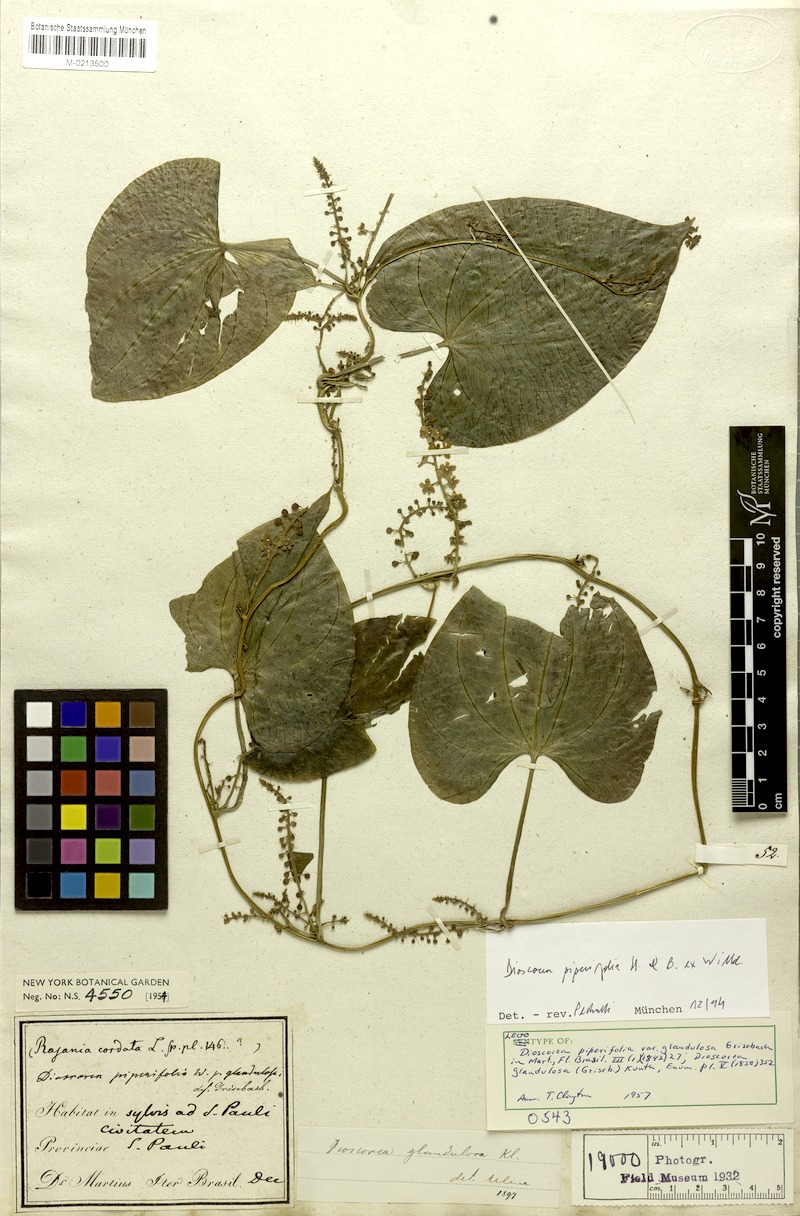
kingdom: Plantae
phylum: Tracheophyta
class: Liliopsida
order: Dioscoreales
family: Dioscoreaceae
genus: Dioscorea
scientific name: Dioscorea glandulosa
